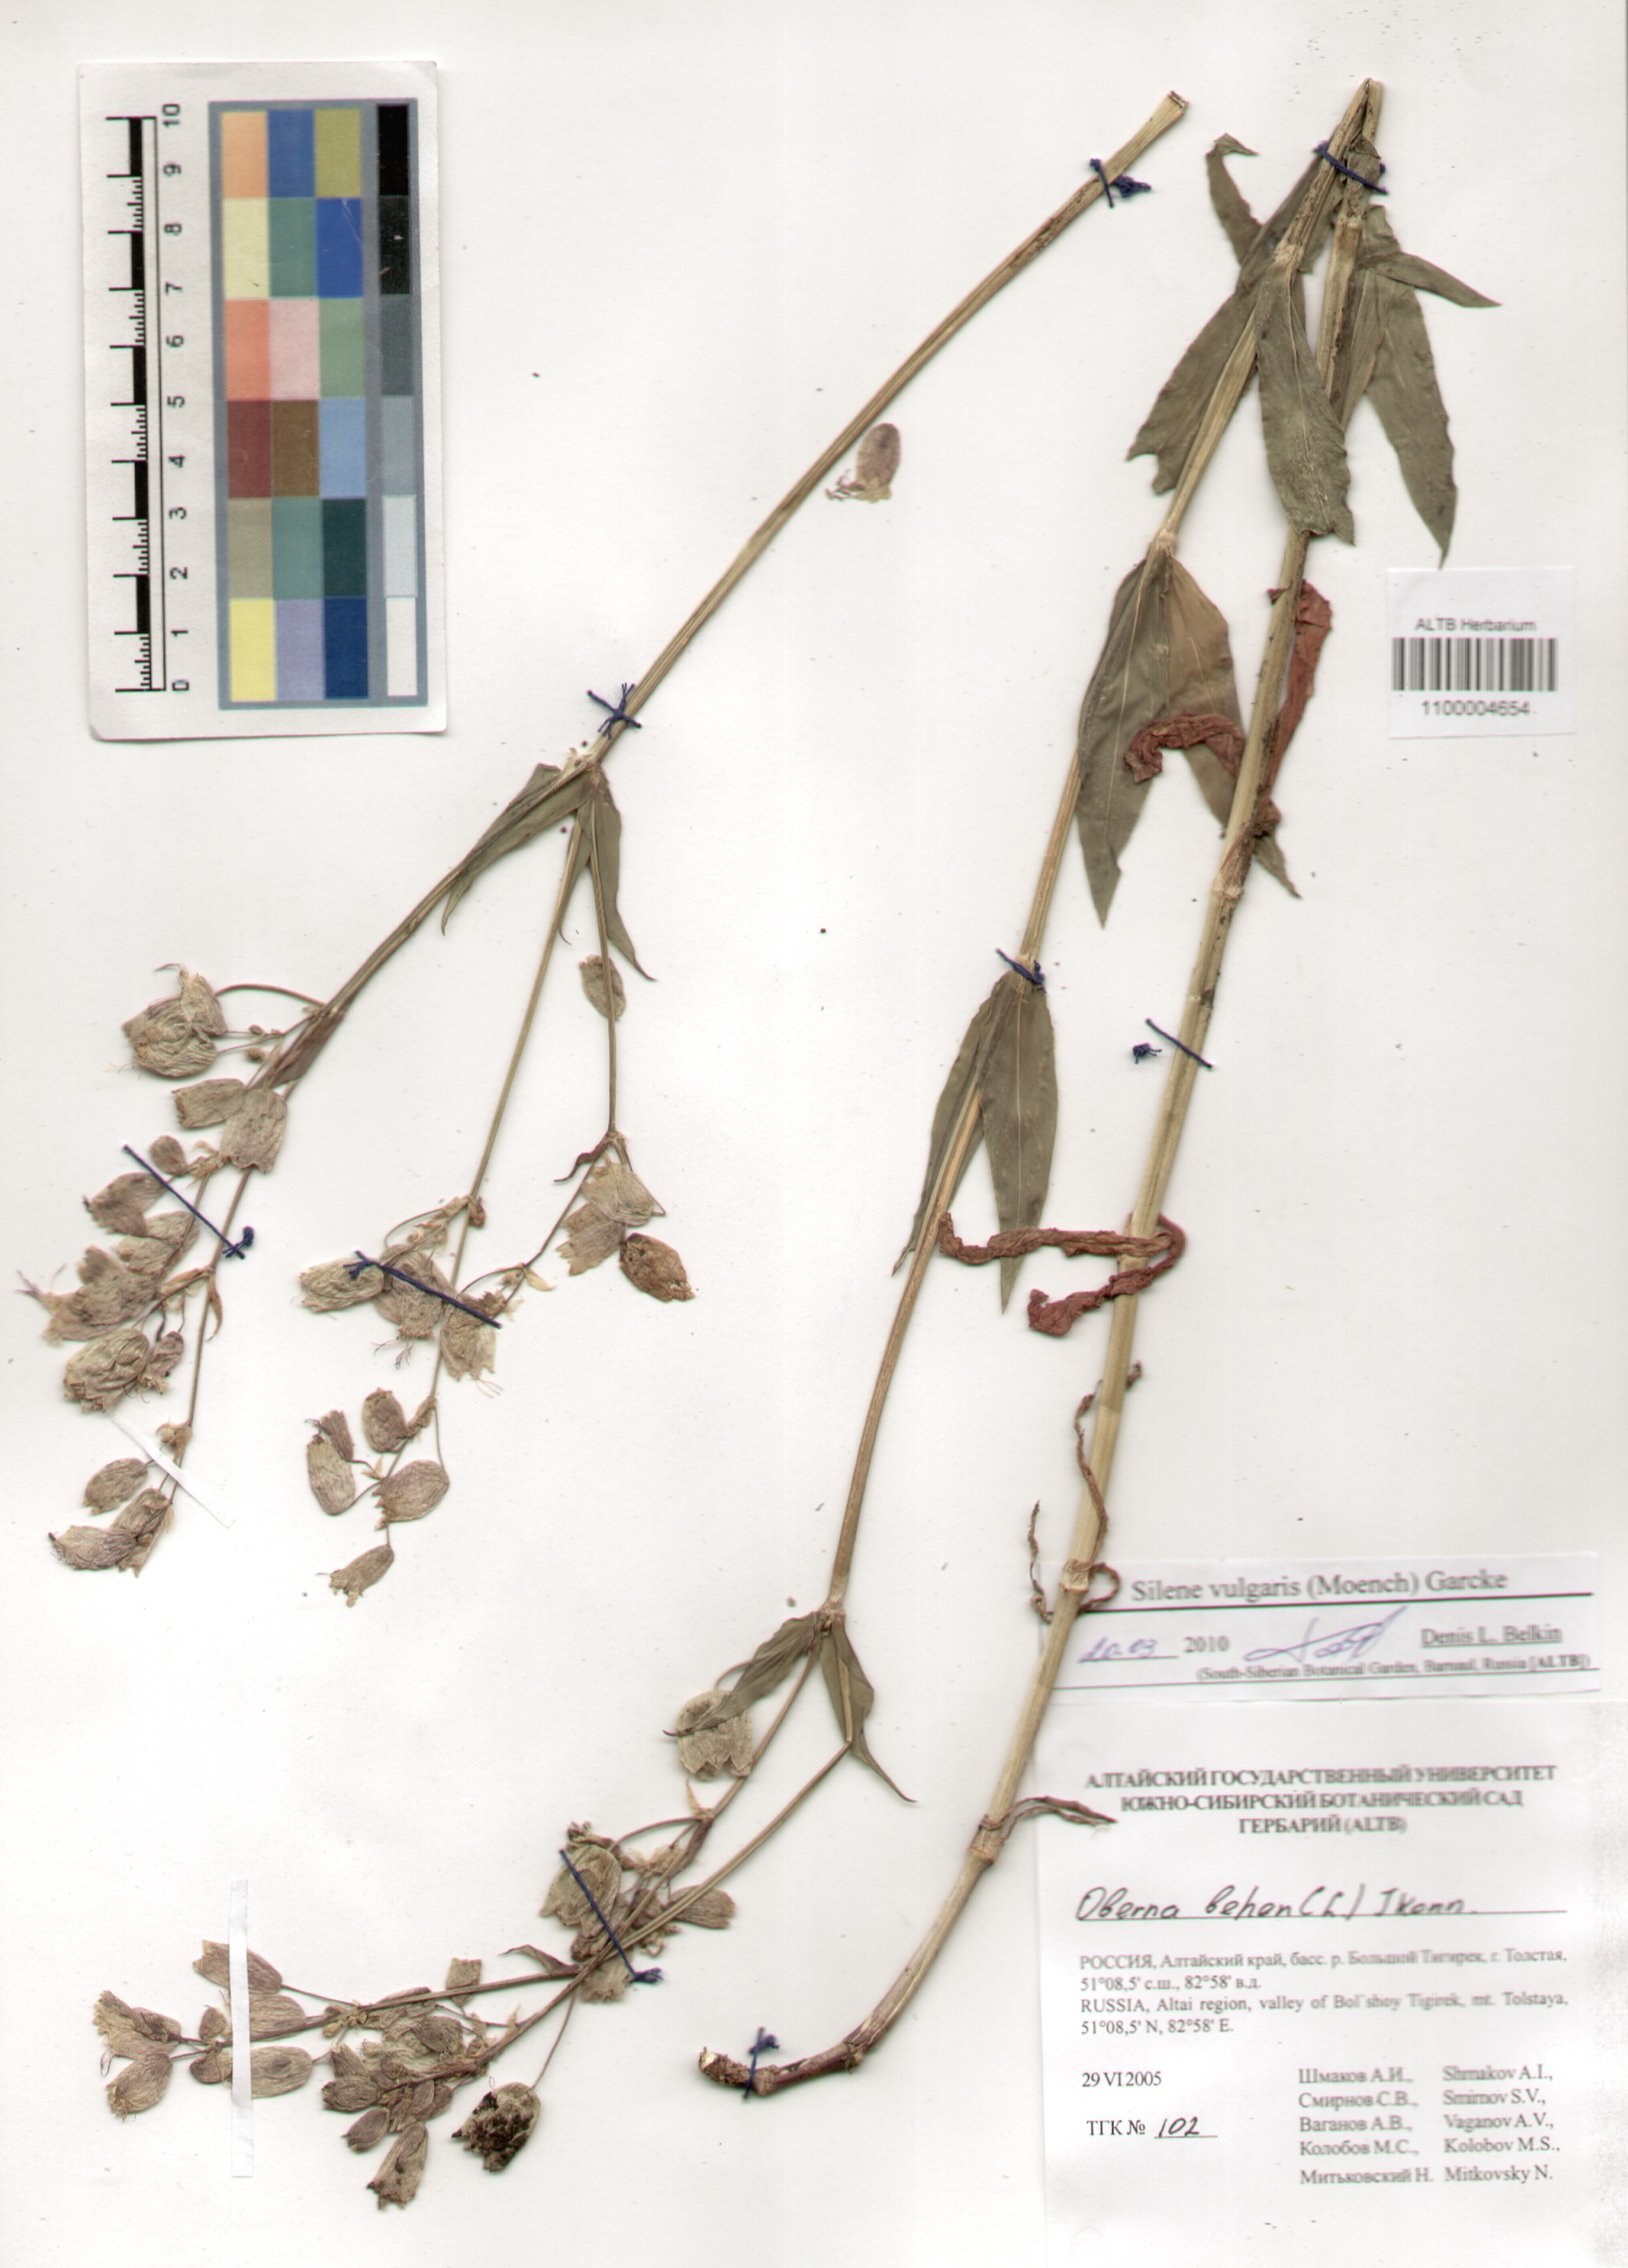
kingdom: Plantae
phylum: Tracheophyta
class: Magnoliopsida
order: Caryophyllales
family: Caryophyllaceae
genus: Silene
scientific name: Silene vulgaris
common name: Bladder campion
